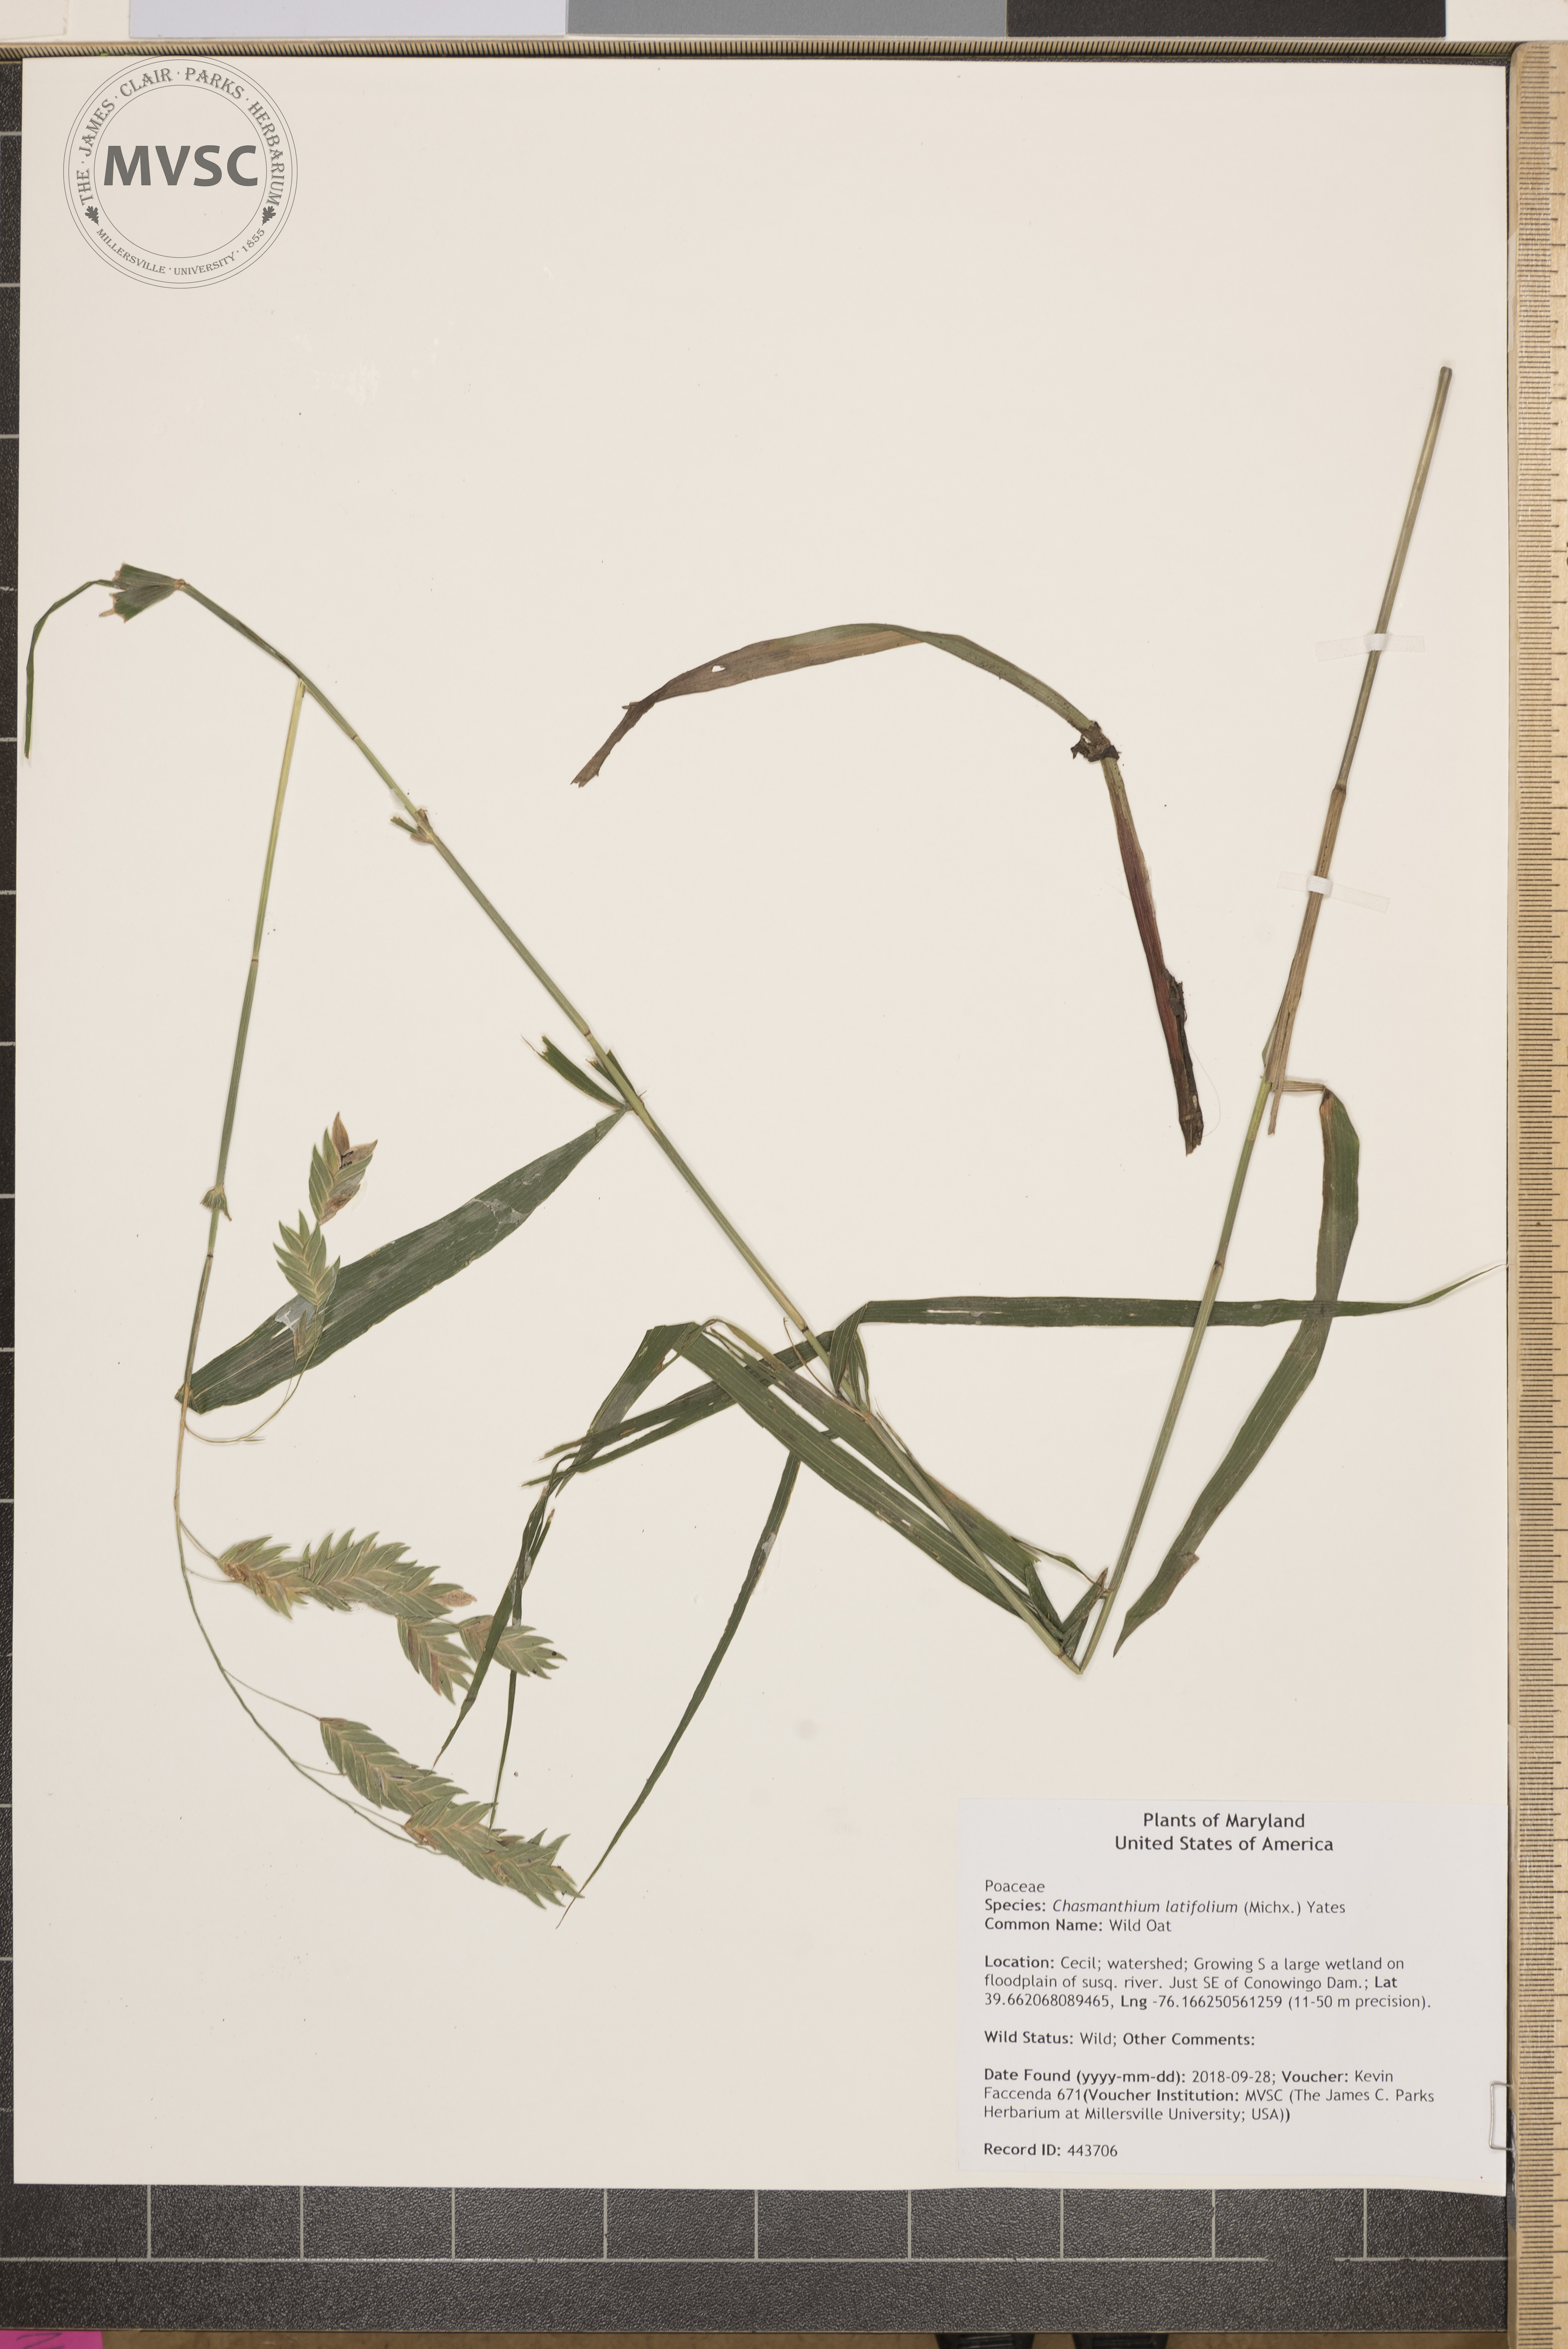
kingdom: Plantae
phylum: Tracheophyta
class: Liliopsida
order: Poales
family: Poaceae
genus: Chasmanthium
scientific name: Chasmanthium latifolium
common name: Wild Oat
